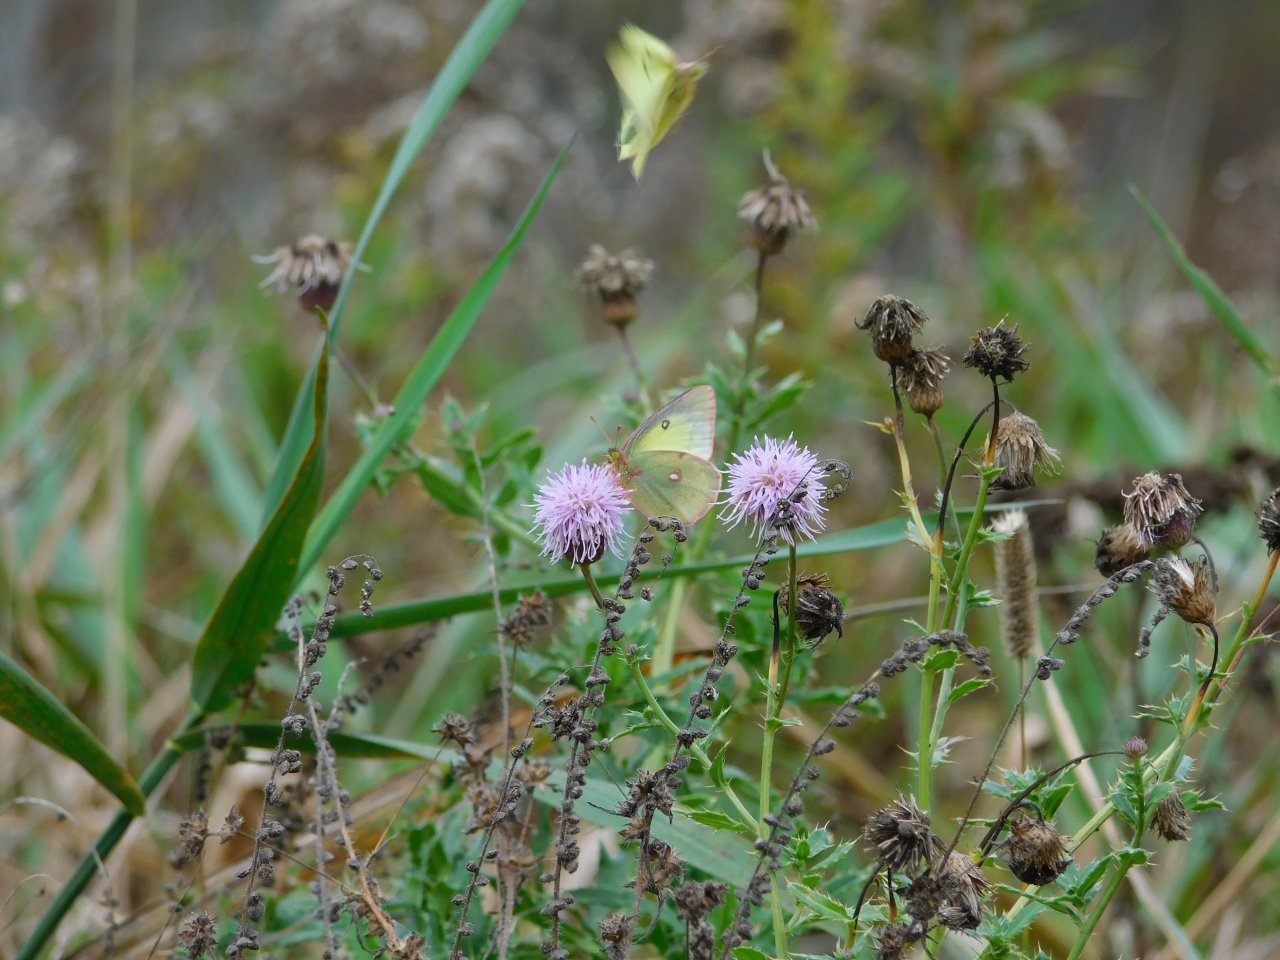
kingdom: Animalia
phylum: Arthropoda
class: Insecta
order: Lepidoptera
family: Pieridae
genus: Colias
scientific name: Colias philodice
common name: Clouded Sulphur
